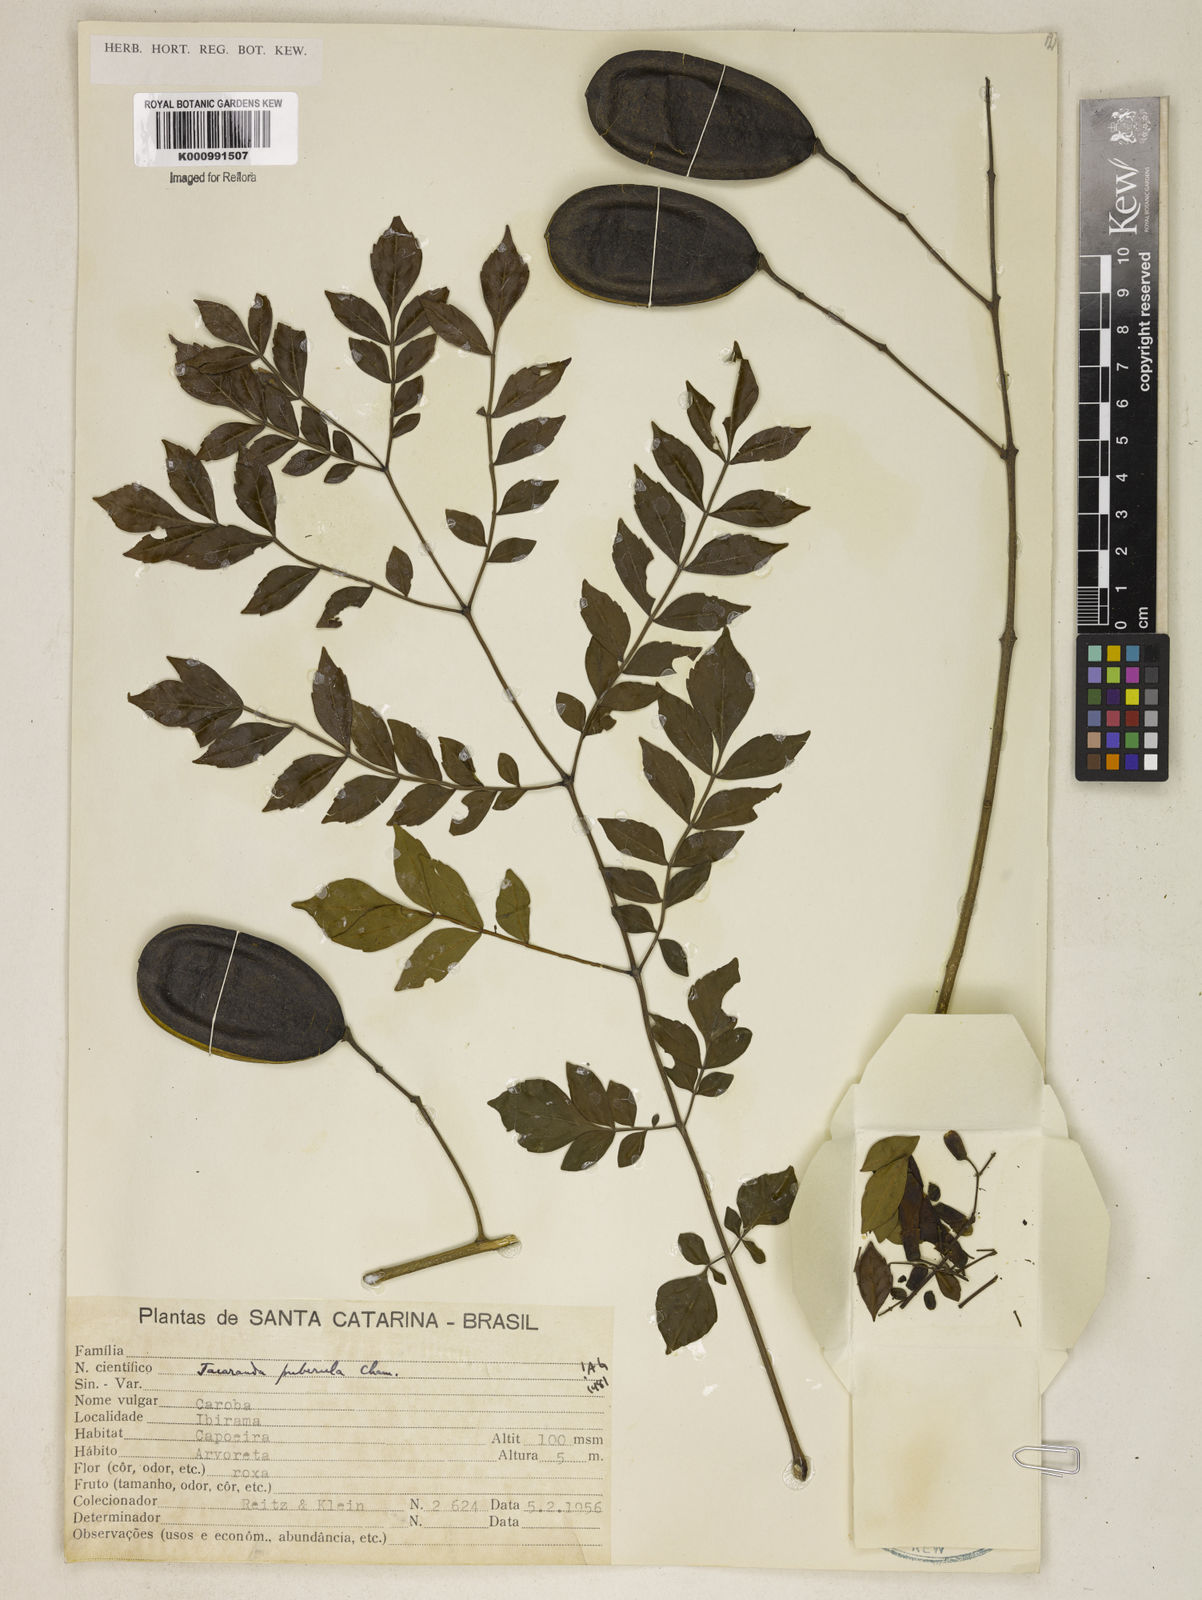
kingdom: Plantae
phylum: Tracheophyta
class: Magnoliopsida
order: Lamiales
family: Bignoniaceae
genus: Jacaranda
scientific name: Jacaranda puberula
